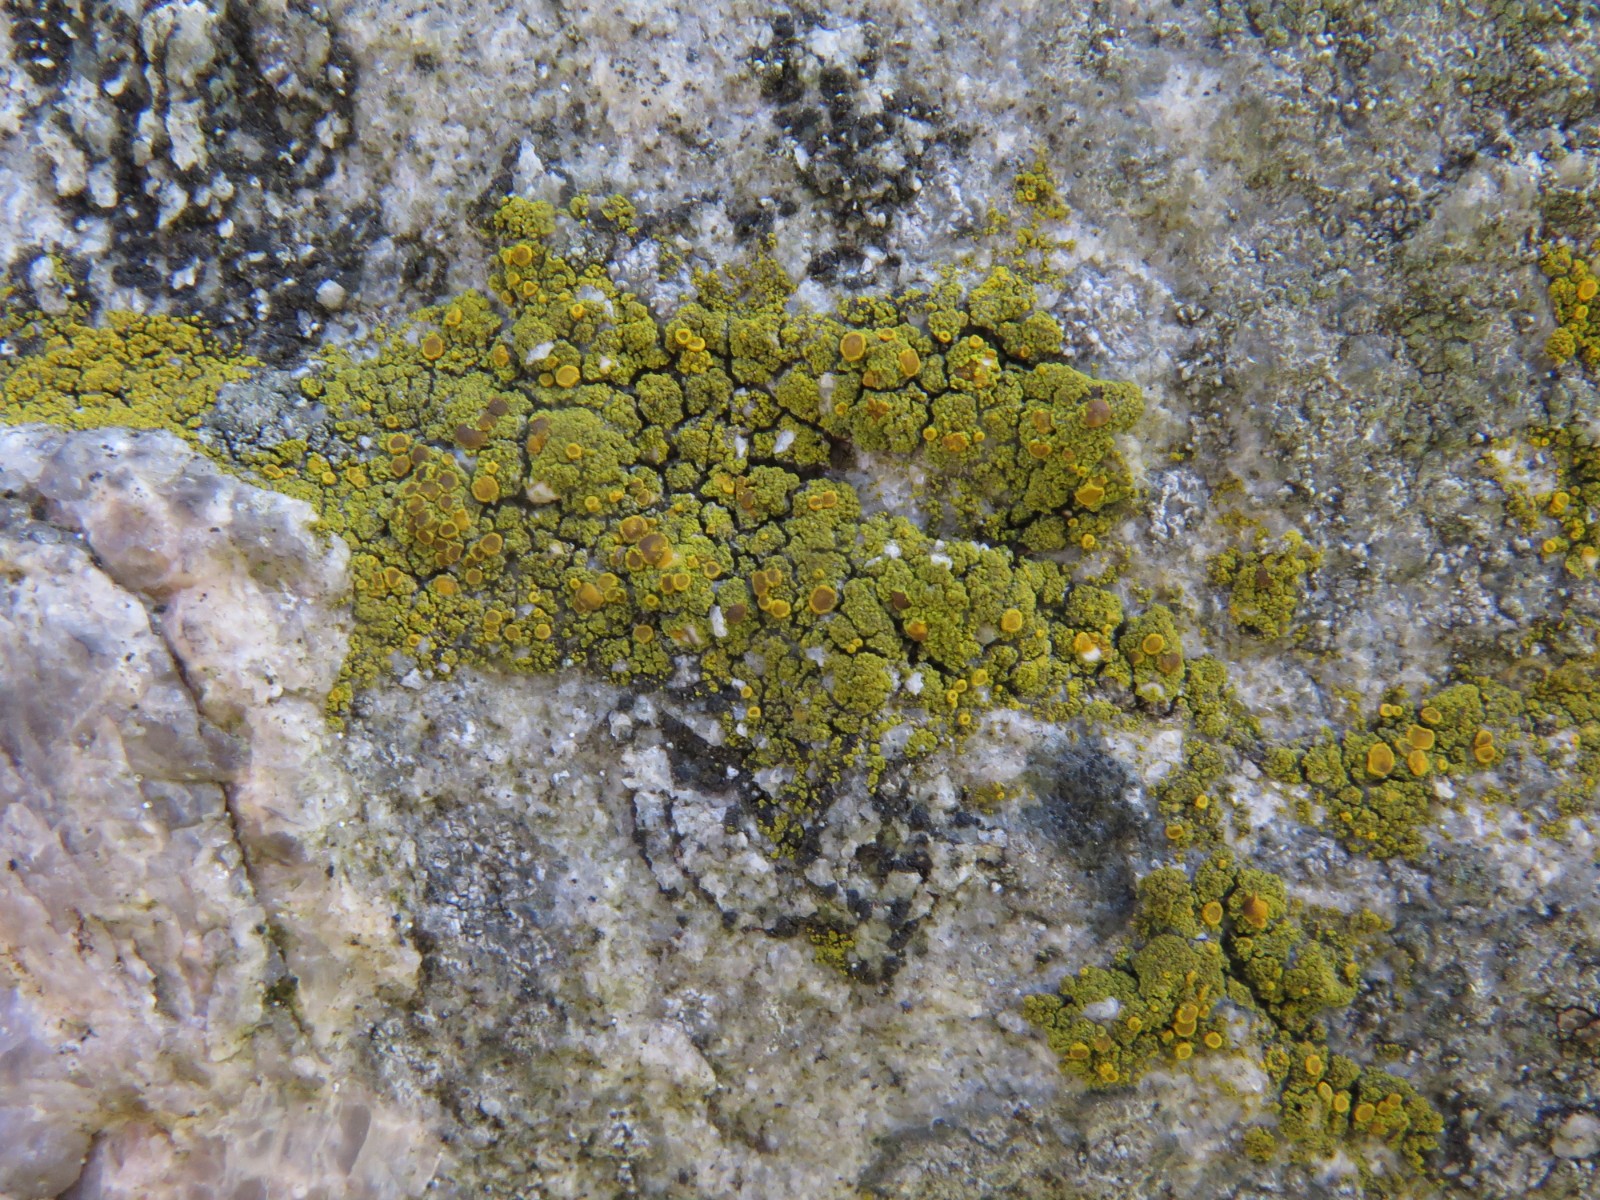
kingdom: Fungi
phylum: Ascomycota
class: Candelariomycetes
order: Candelariales
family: Candelariaceae
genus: Candelariella
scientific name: Candelariella vitellina
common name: almindelig æggeblommelav
